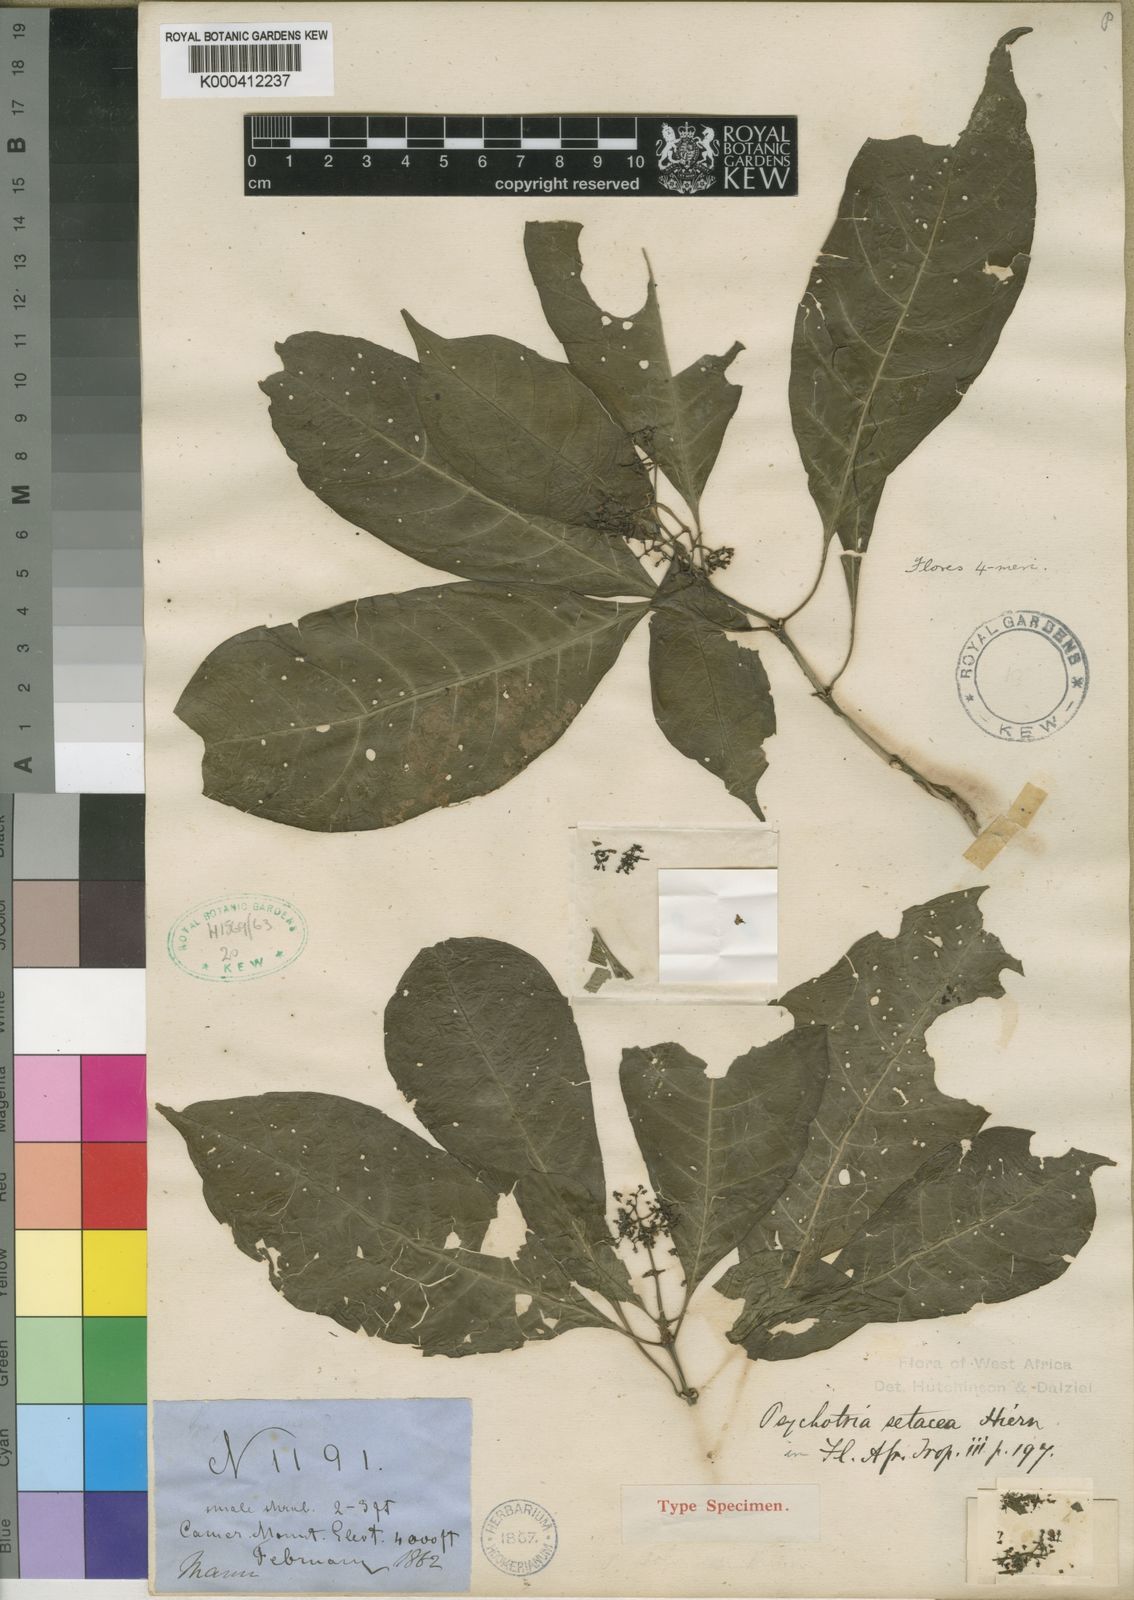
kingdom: Plantae
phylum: Tracheophyta
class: Magnoliopsida
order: Gentianales
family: Rubiaceae
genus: Psychotria
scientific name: Psychotria leptophylla
